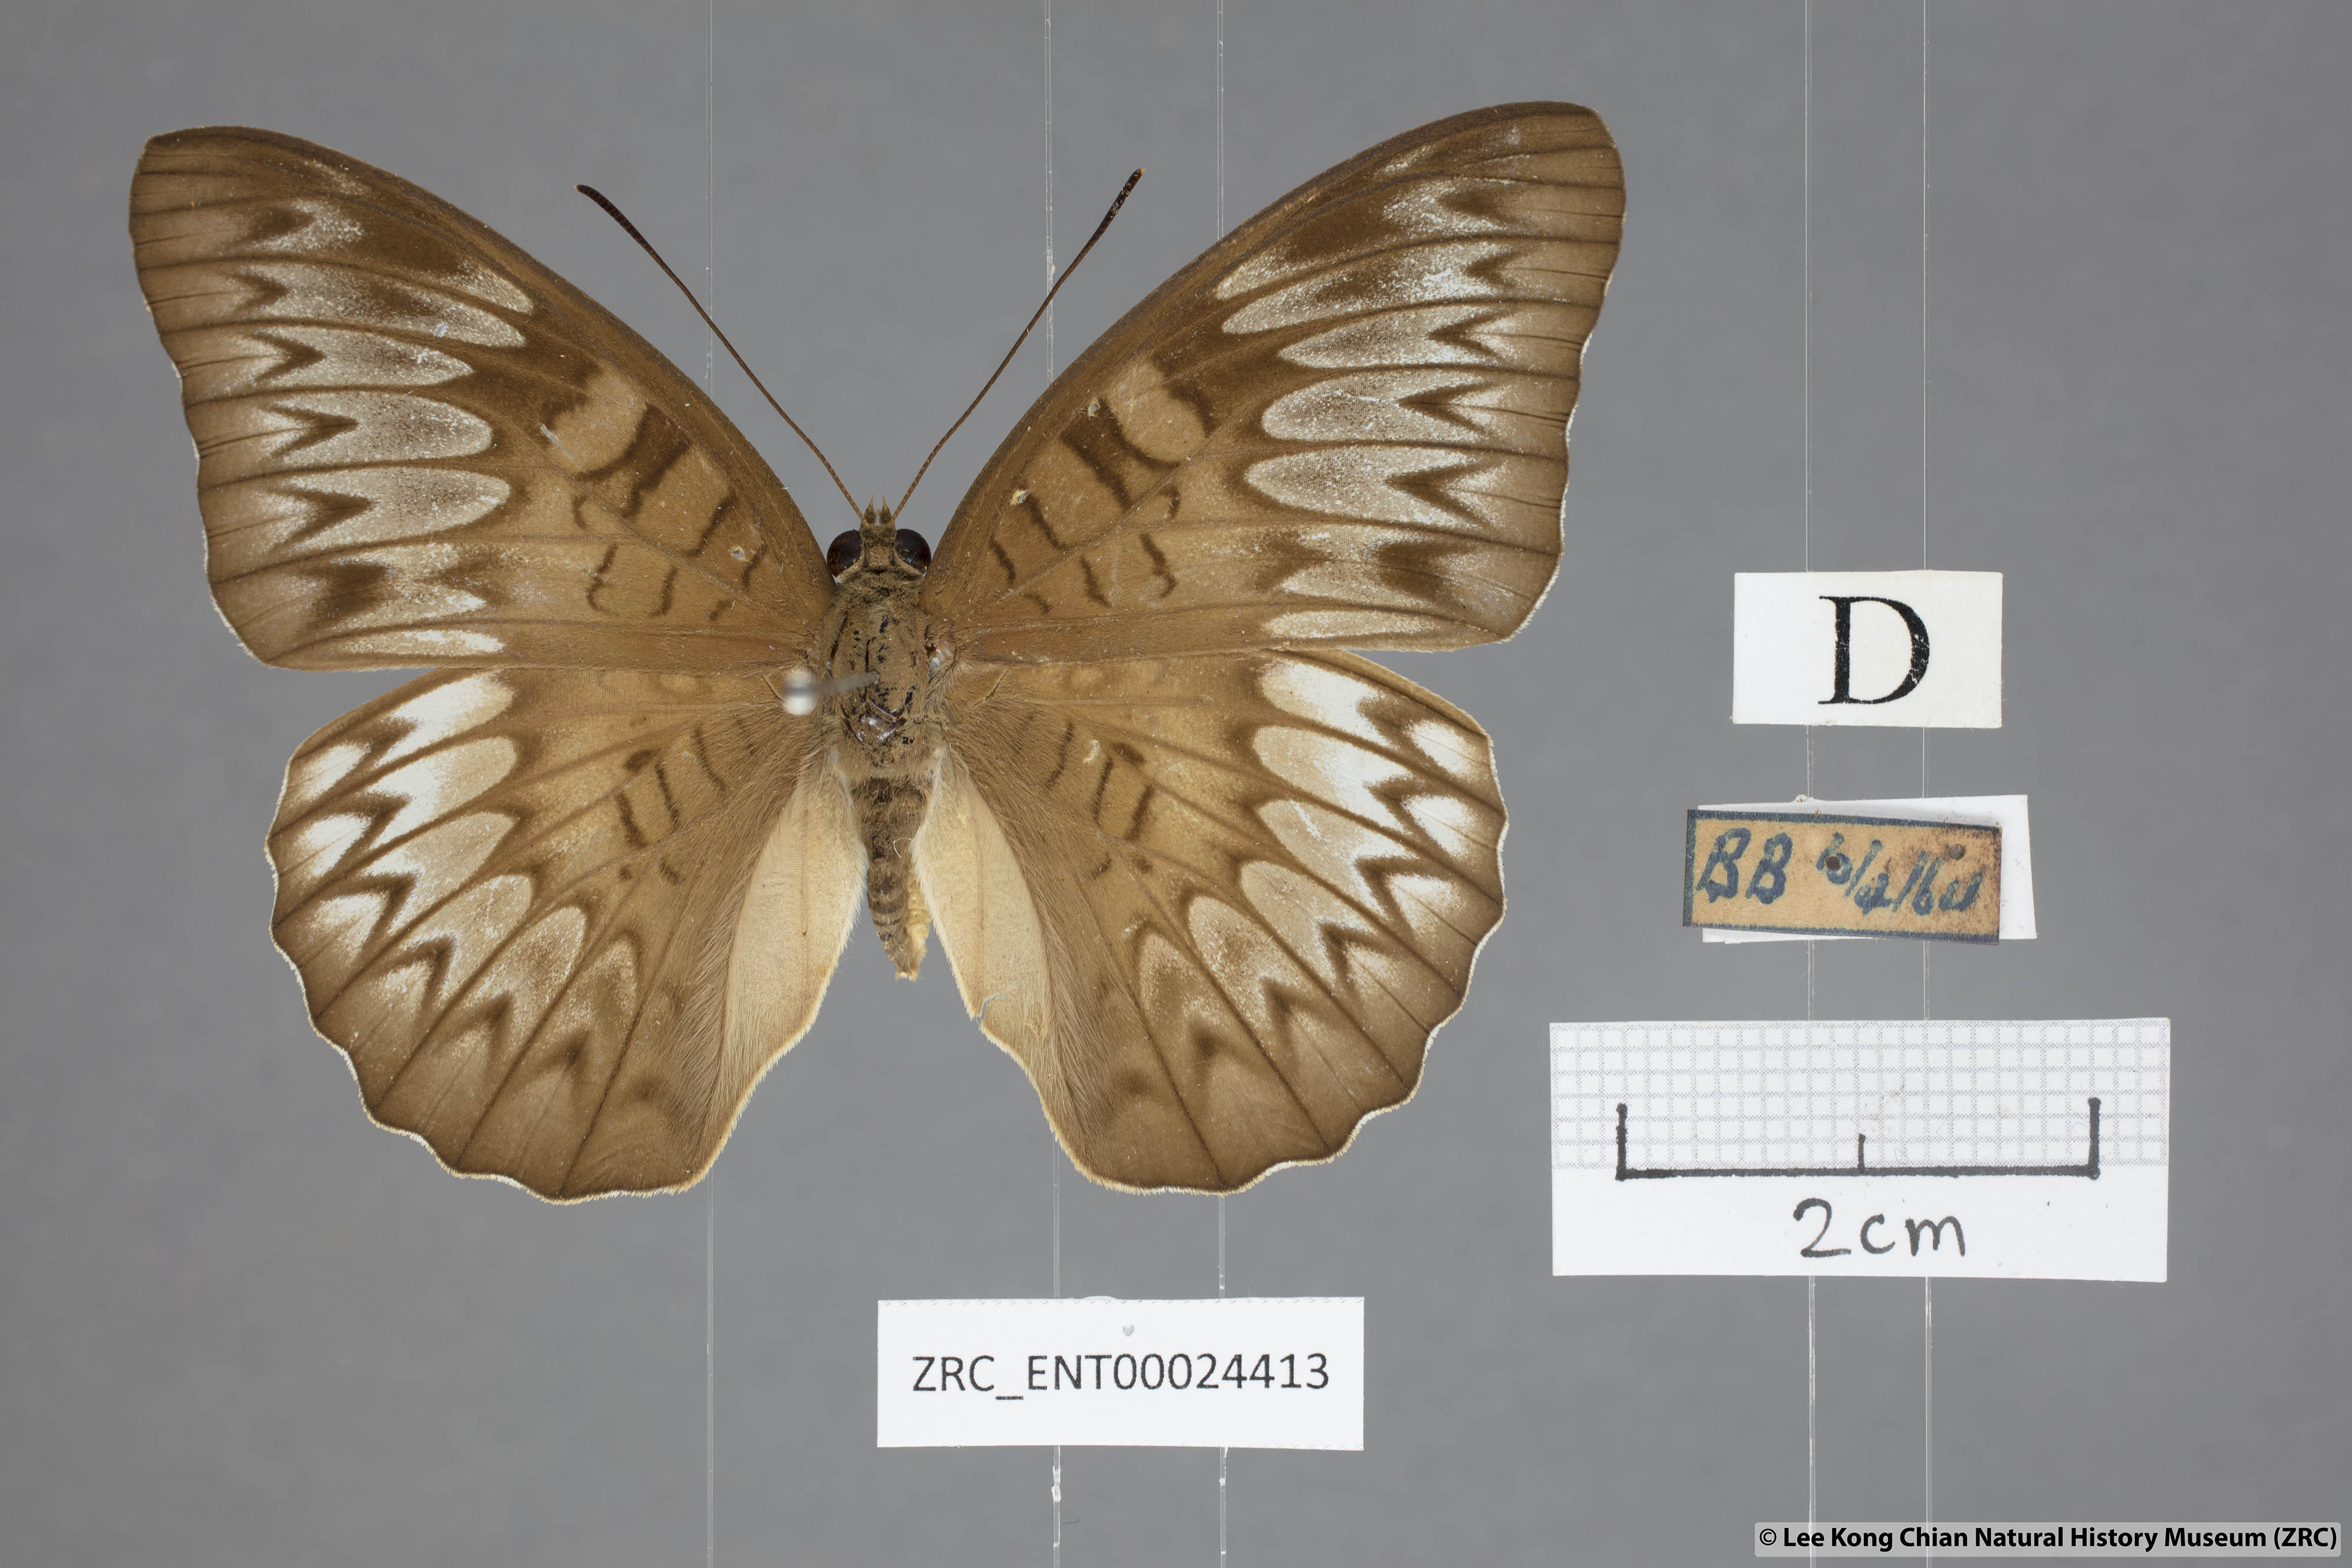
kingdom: Animalia
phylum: Arthropoda
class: Insecta
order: Lepidoptera
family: Nymphalidae
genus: Tanaecia
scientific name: Tanaecia pelea
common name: Malay viscount
